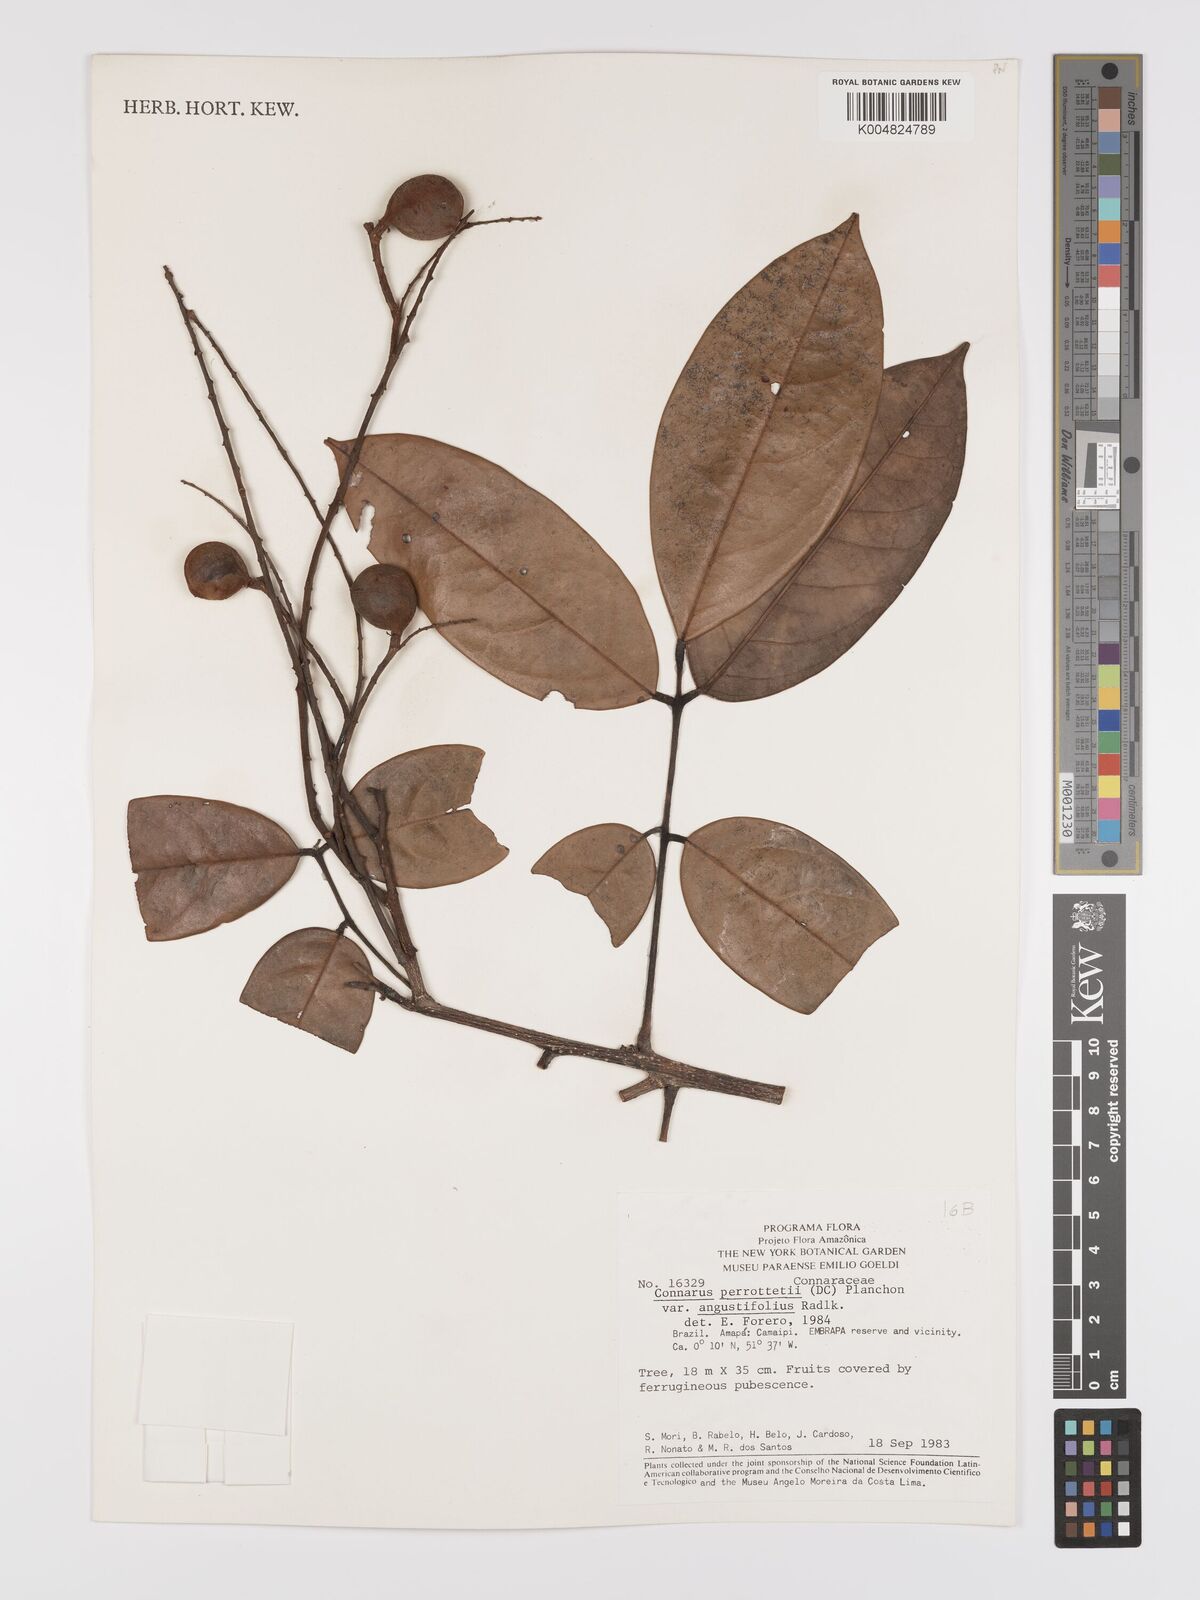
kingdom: Plantae
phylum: Tracheophyta
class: Magnoliopsida
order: Oxalidales
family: Connaraceae
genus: Connarus
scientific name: Connarus perrottetii
